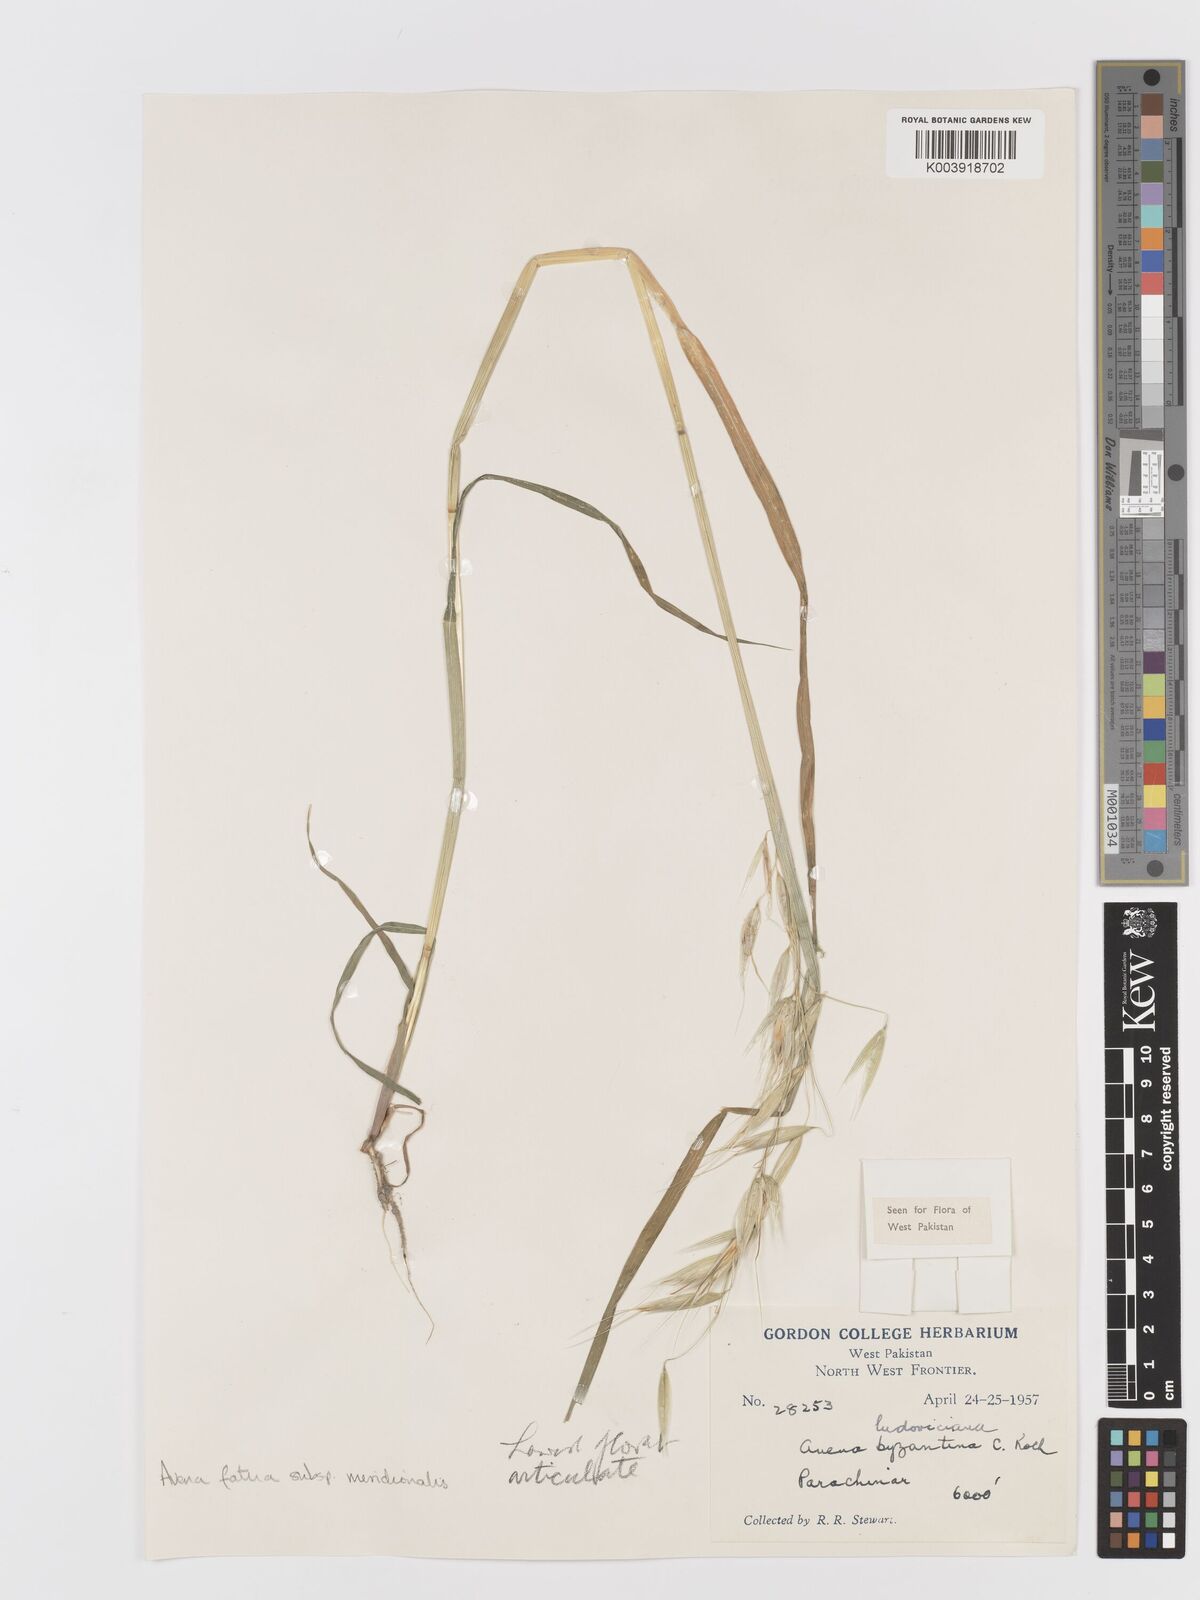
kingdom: Plantae
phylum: Tracheophyta
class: Liliopsida
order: Poales
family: Poaceae
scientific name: Poaceae
